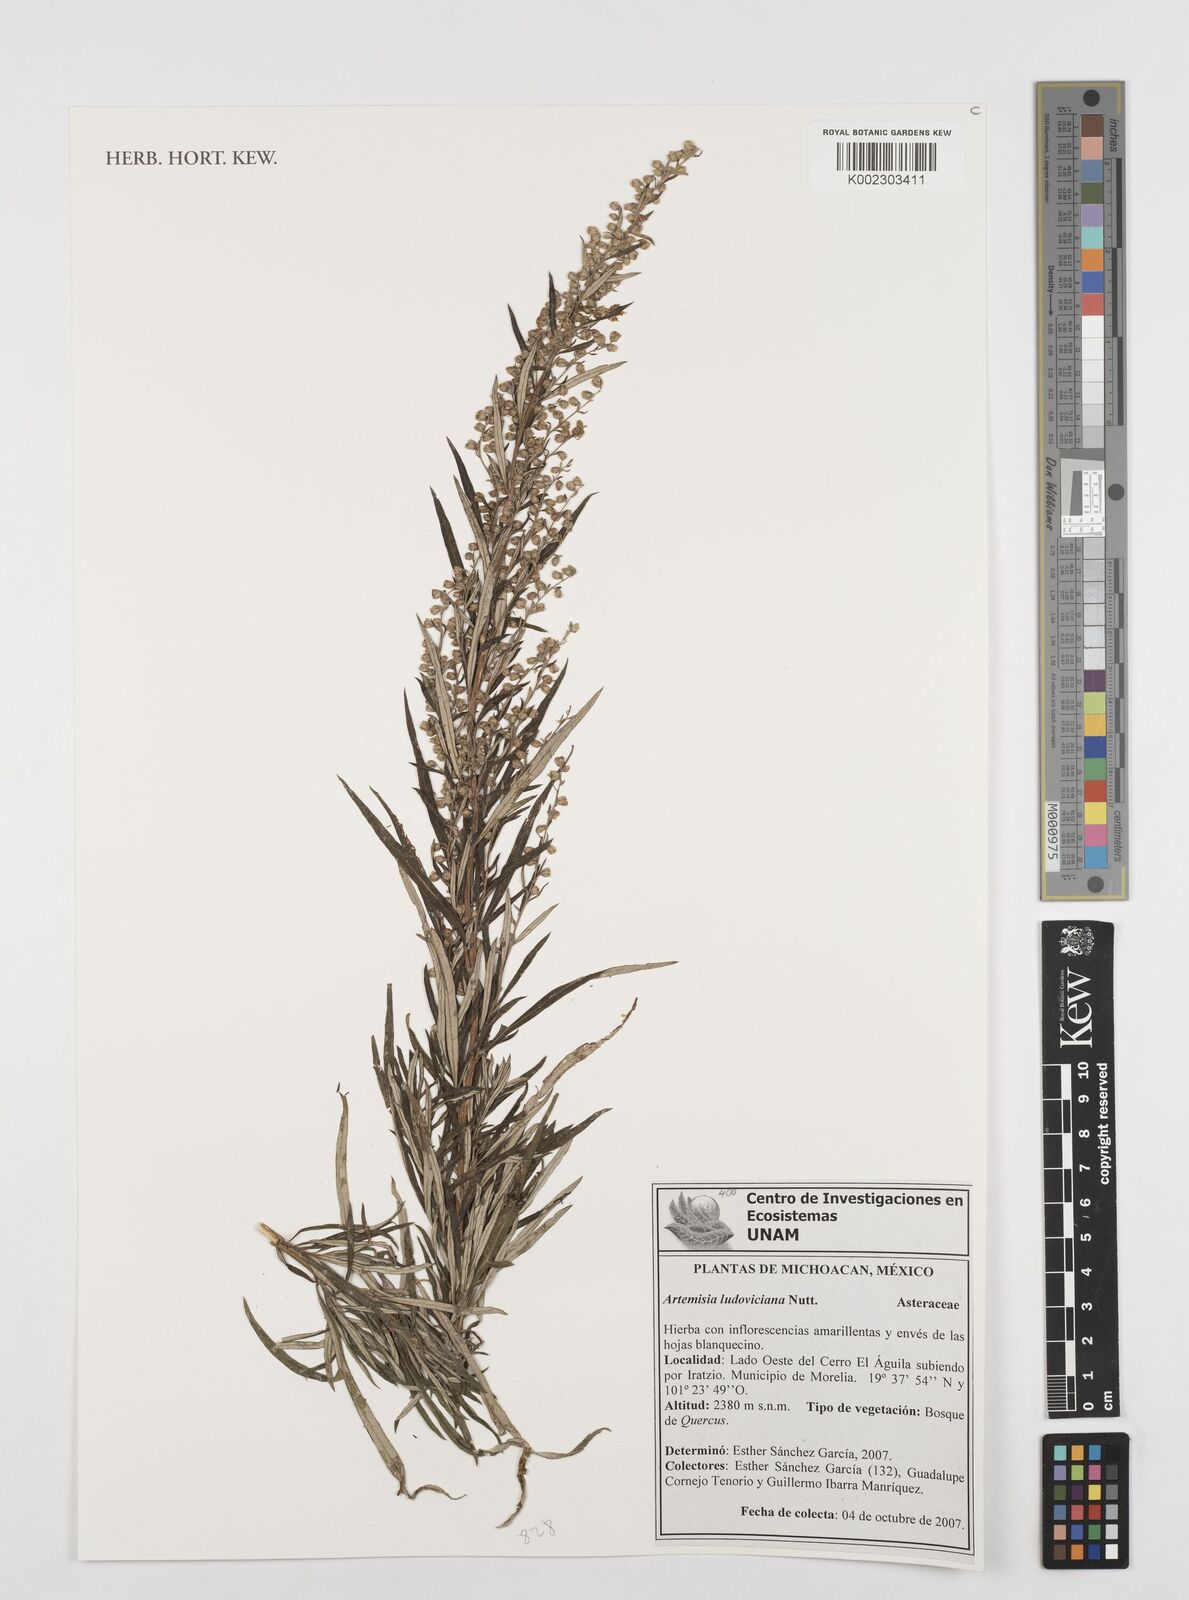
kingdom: Plantae
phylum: Tracheophyta
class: Magnoliopsida
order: Asterales
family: Asteraceae
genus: Artemisia
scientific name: Artemisia ludoviciana
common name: Western mugwort
